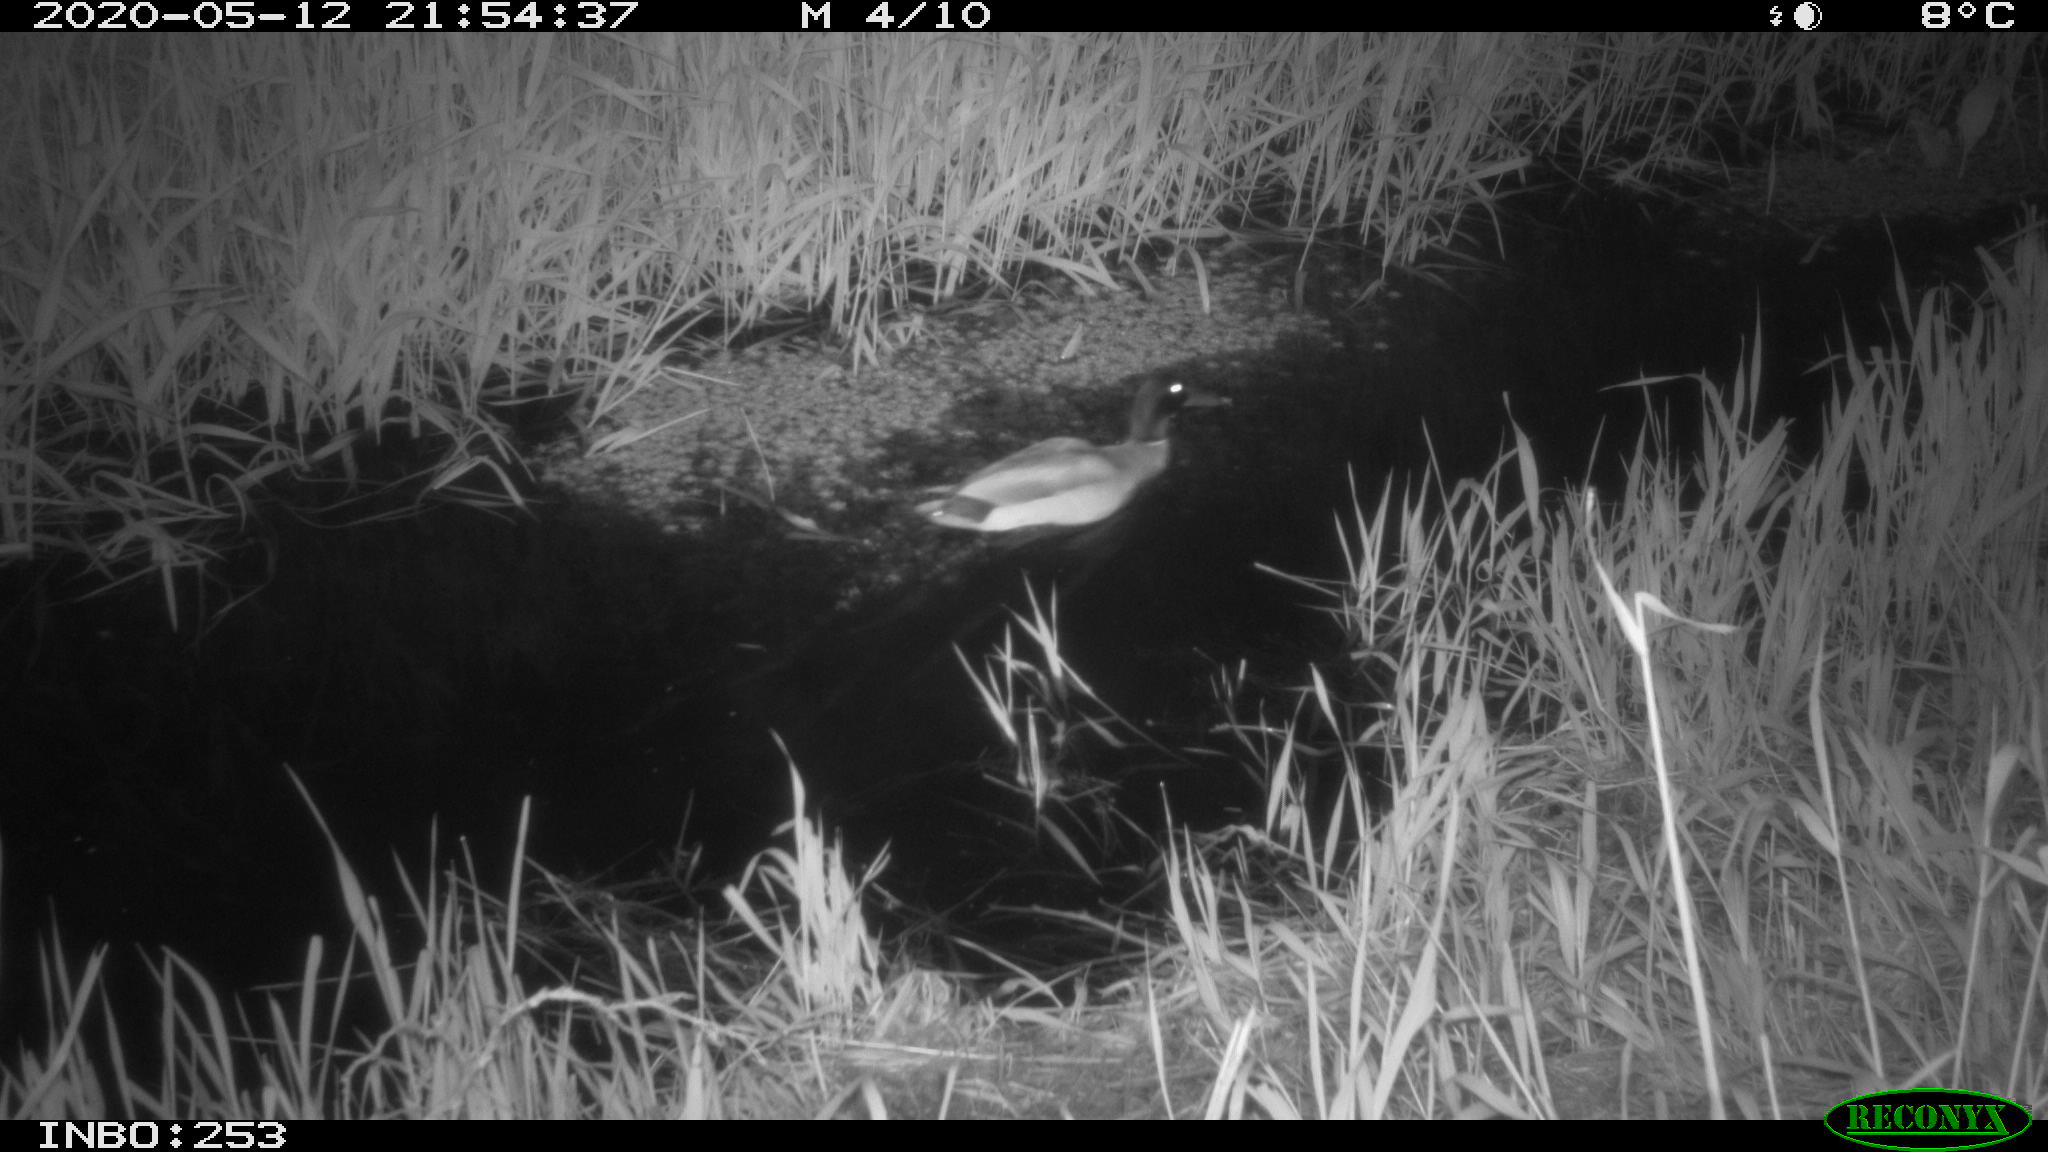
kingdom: Animalia
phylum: Chordata
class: Aves
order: Anseriformes
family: Anatidae
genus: Anas
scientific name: Anas platyrhynchos
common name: Mallard
